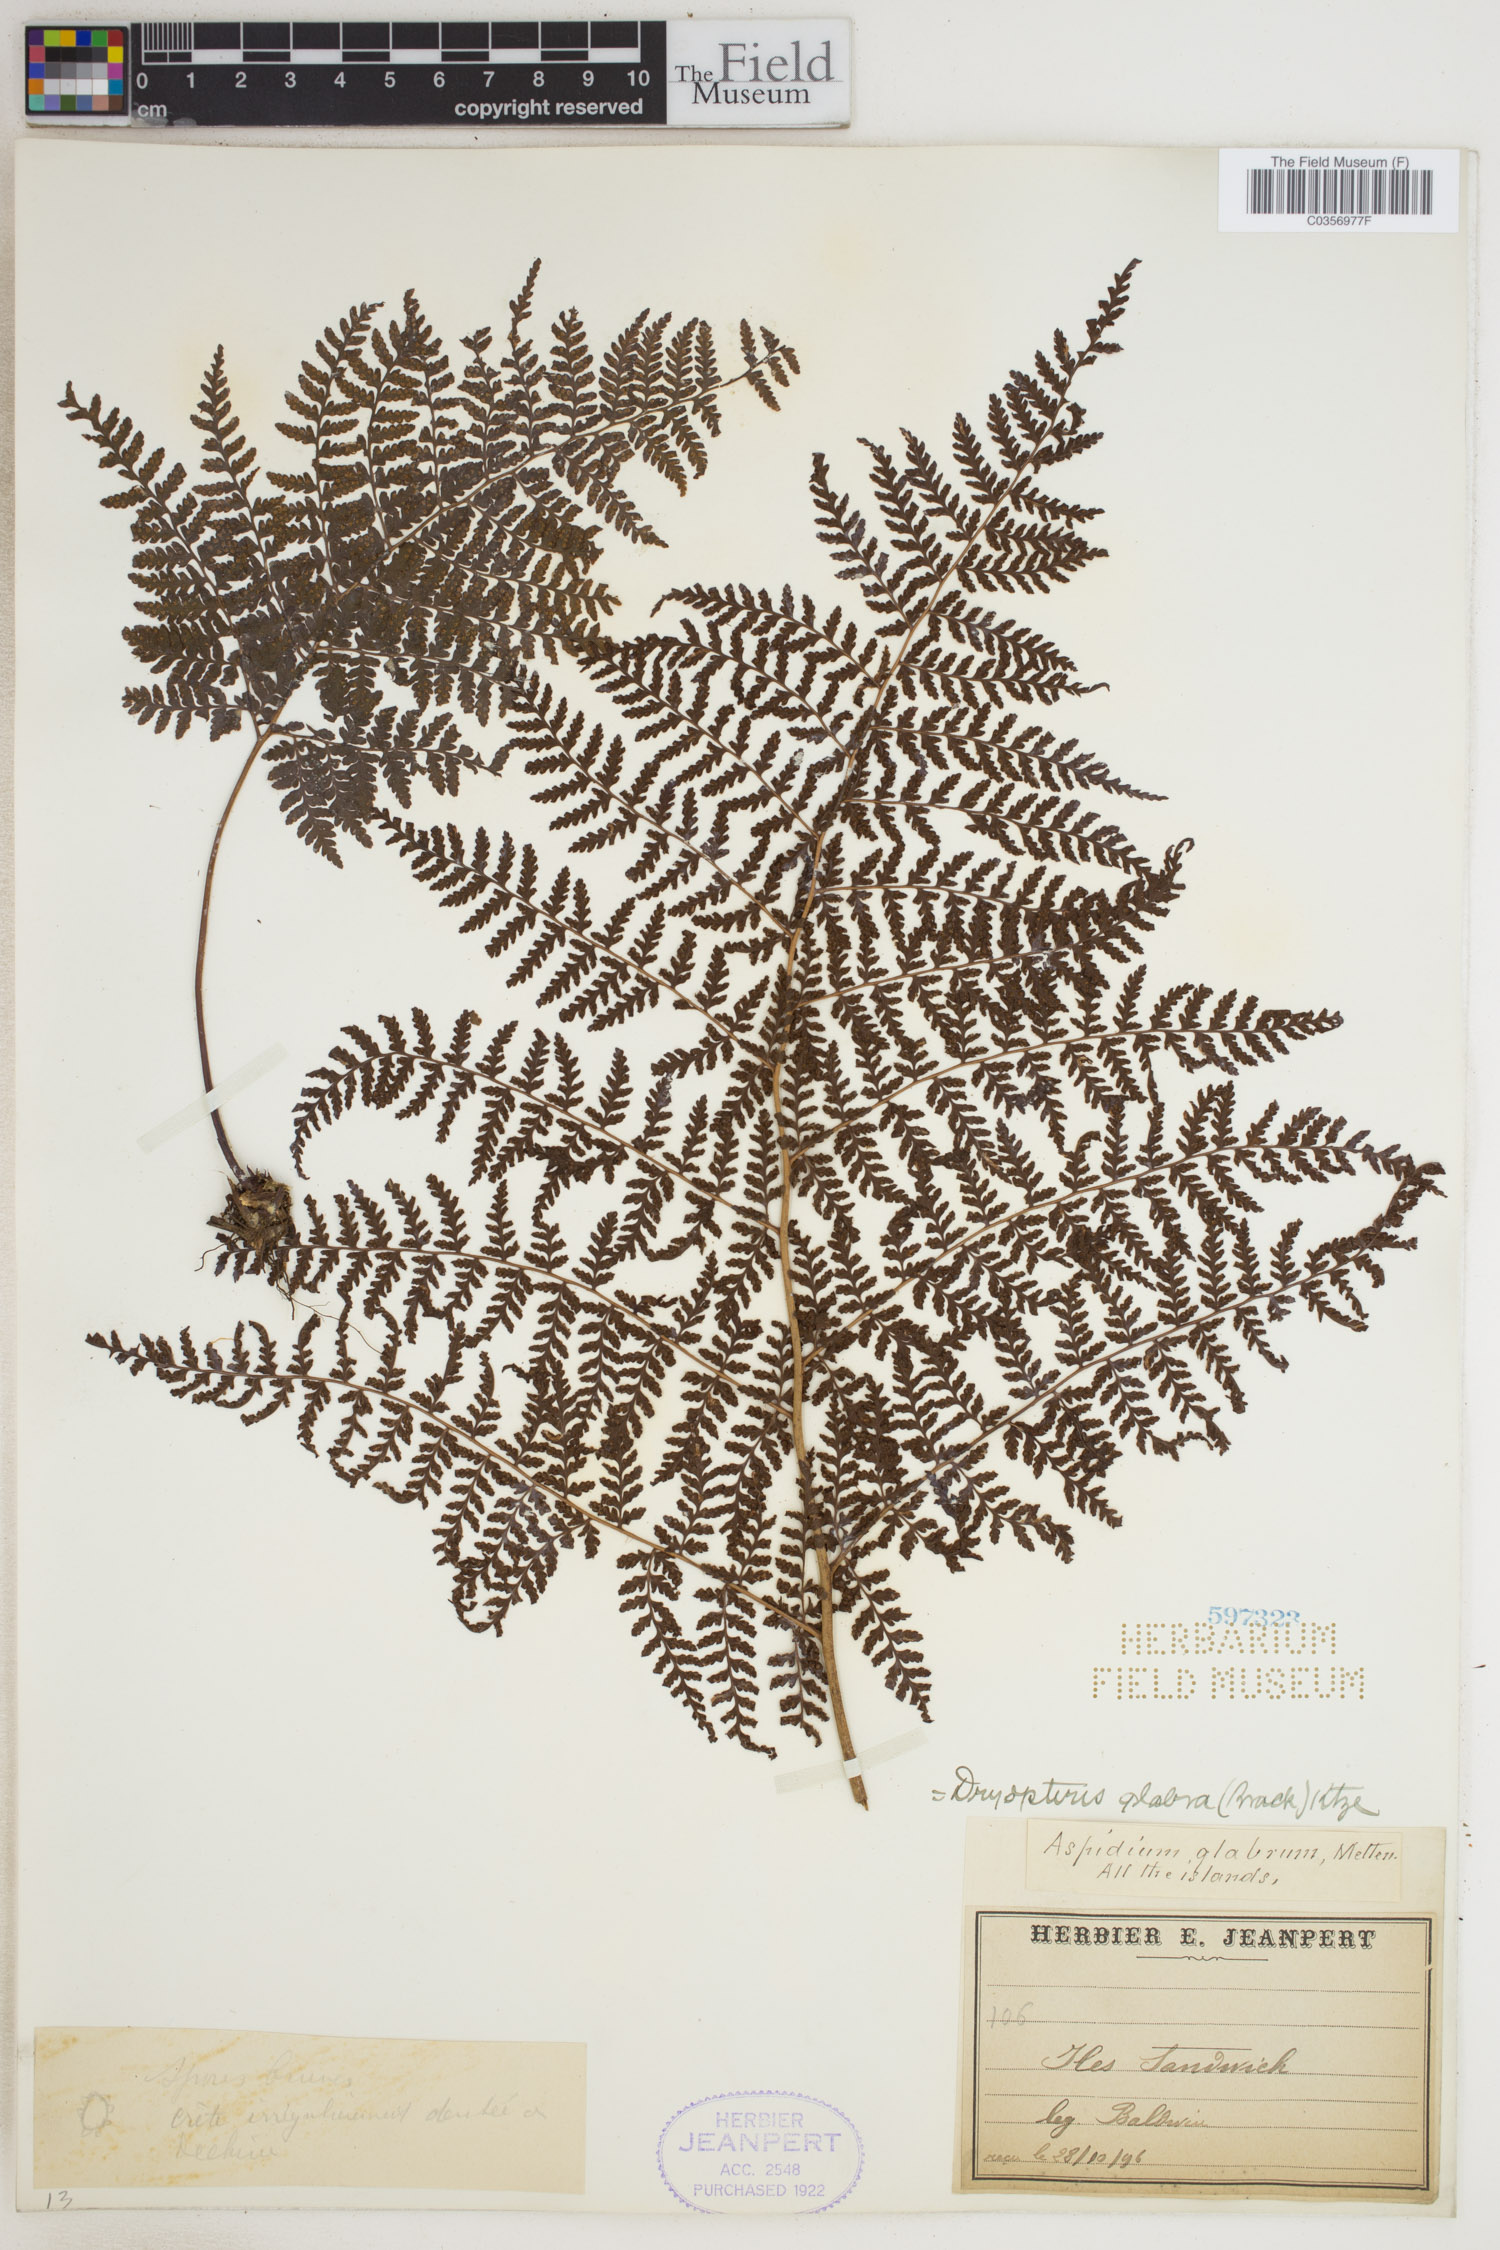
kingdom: Plantae
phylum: Tracheophyta
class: Polypodiopsida
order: Polypodiales
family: Dryopteridaceae
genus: Dryopteris
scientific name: Dryopteris glabra
